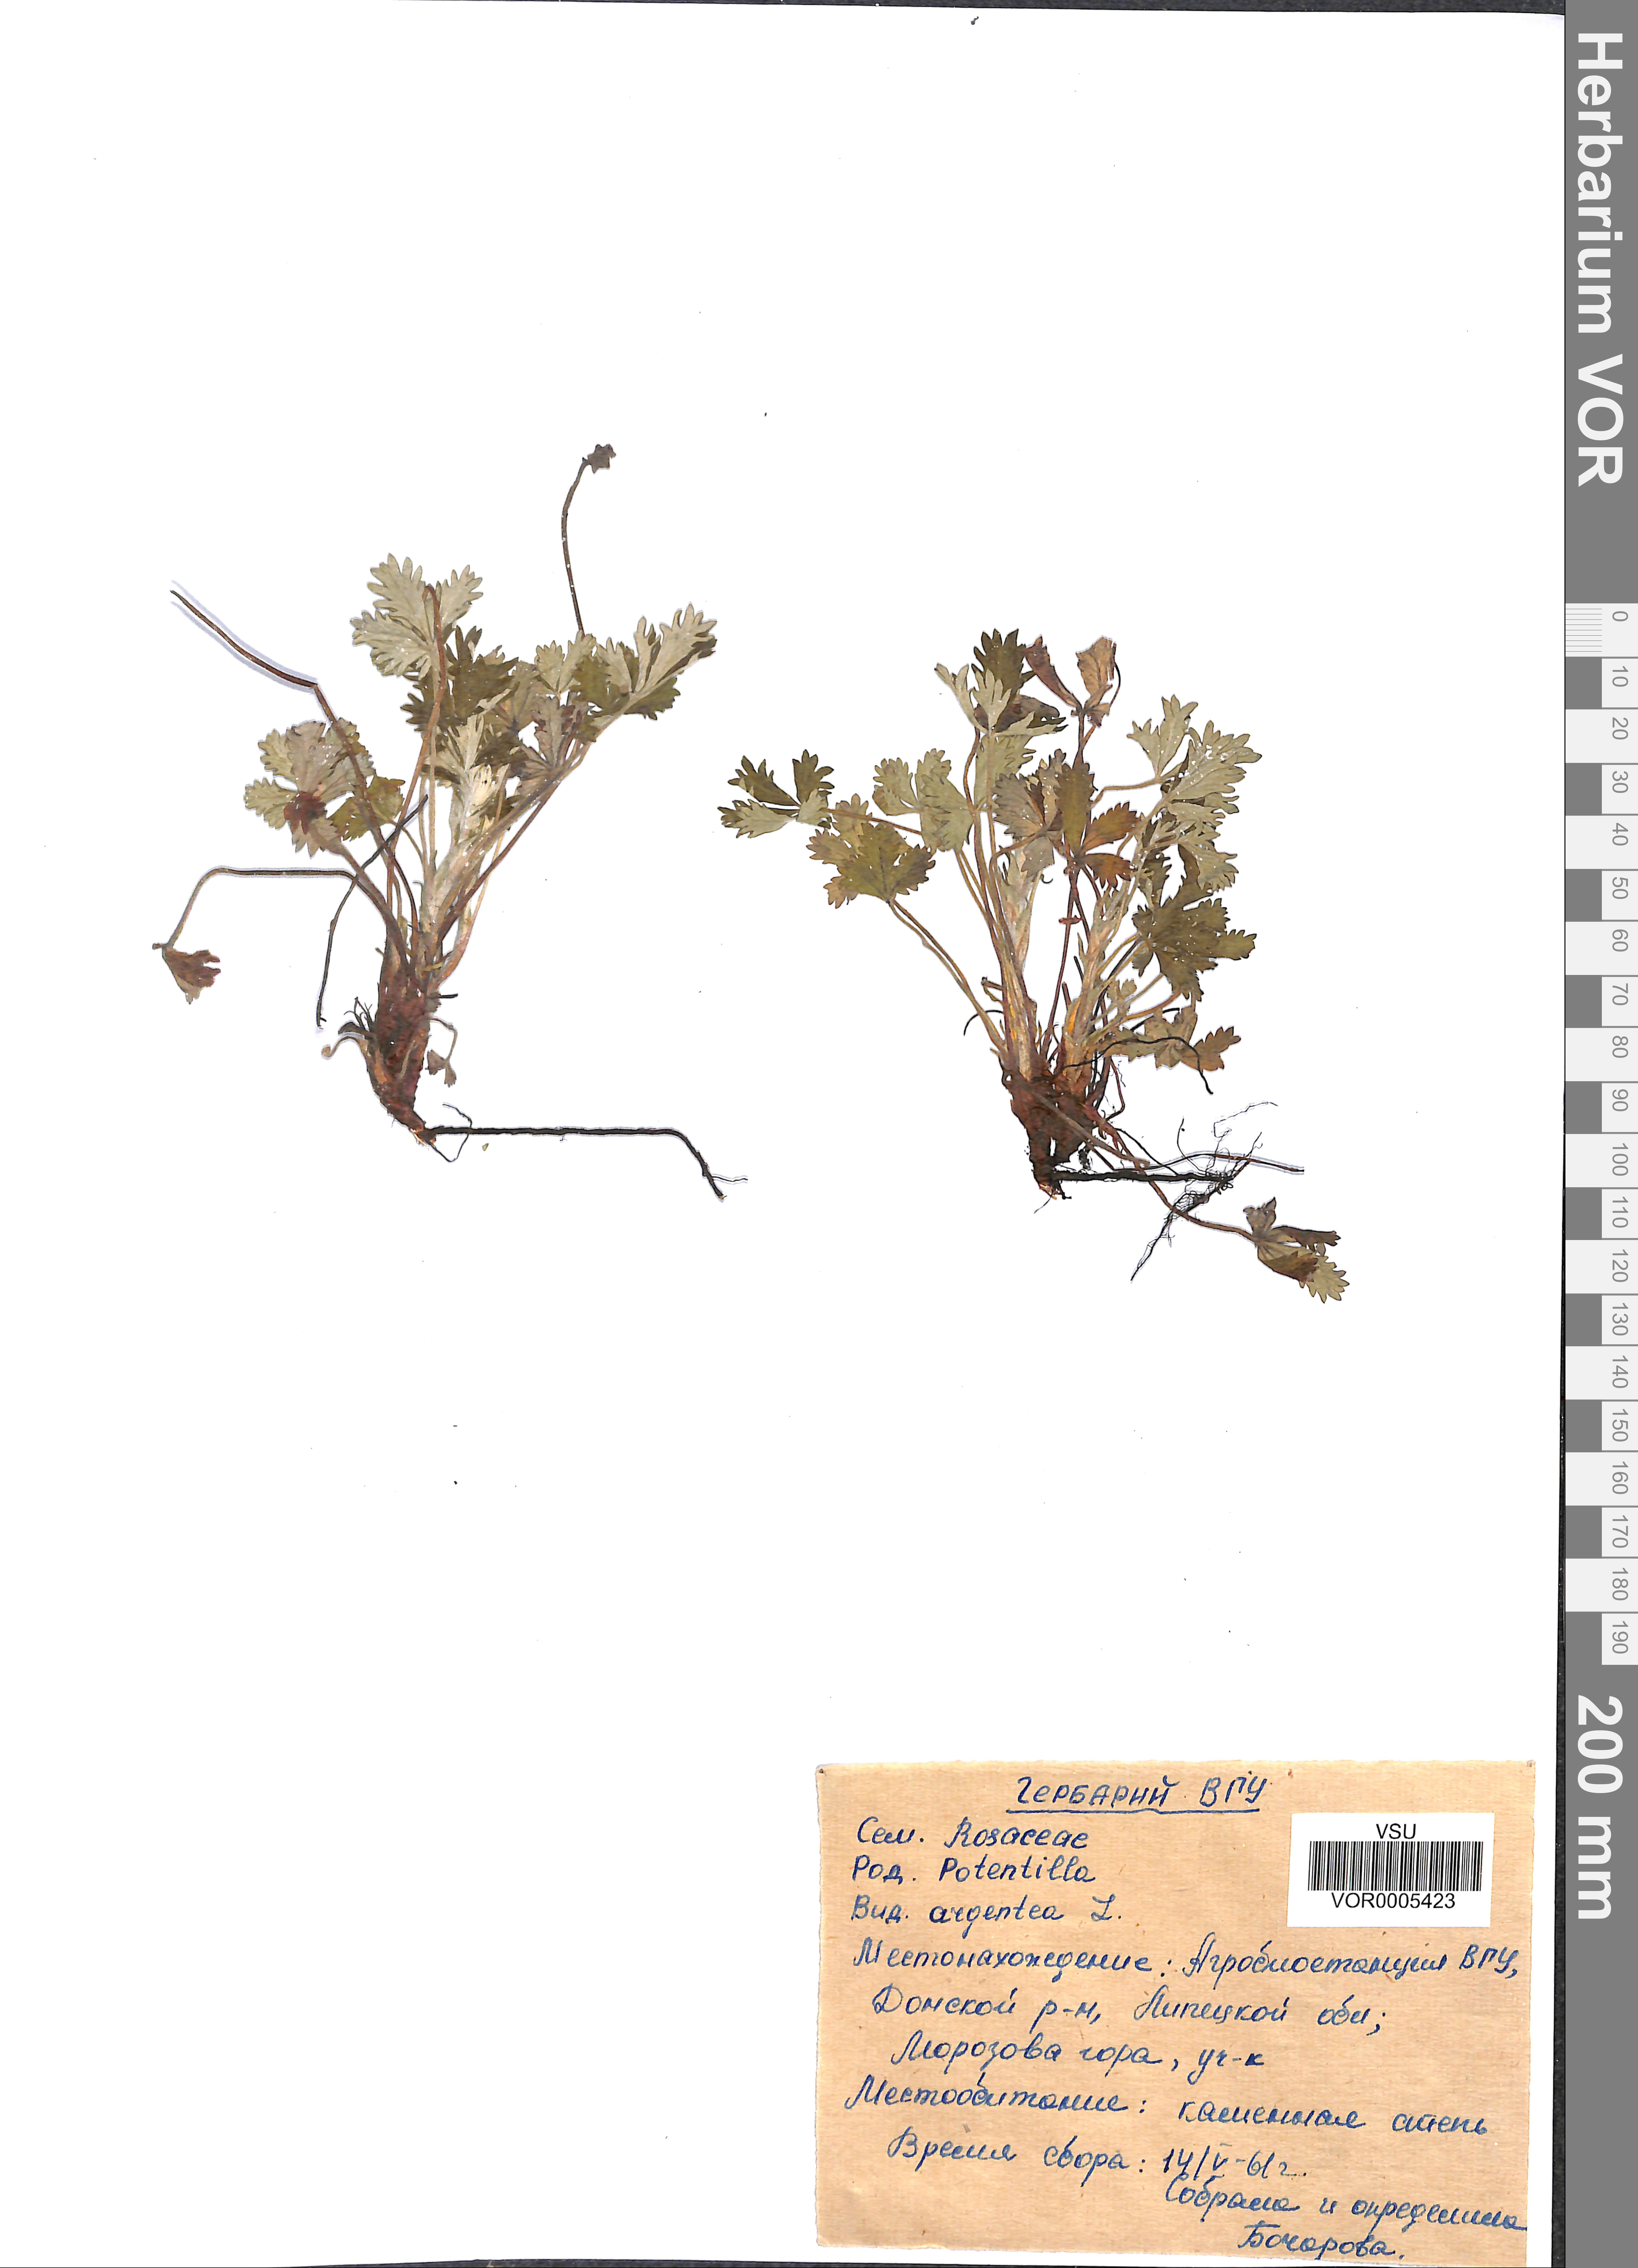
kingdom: Plantae
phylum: Tracheophyta
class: Magnoliopsida
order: Rosales
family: Rosaceae
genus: Potentilla
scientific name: Potentilla argentea
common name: Hoary cinquefoil
